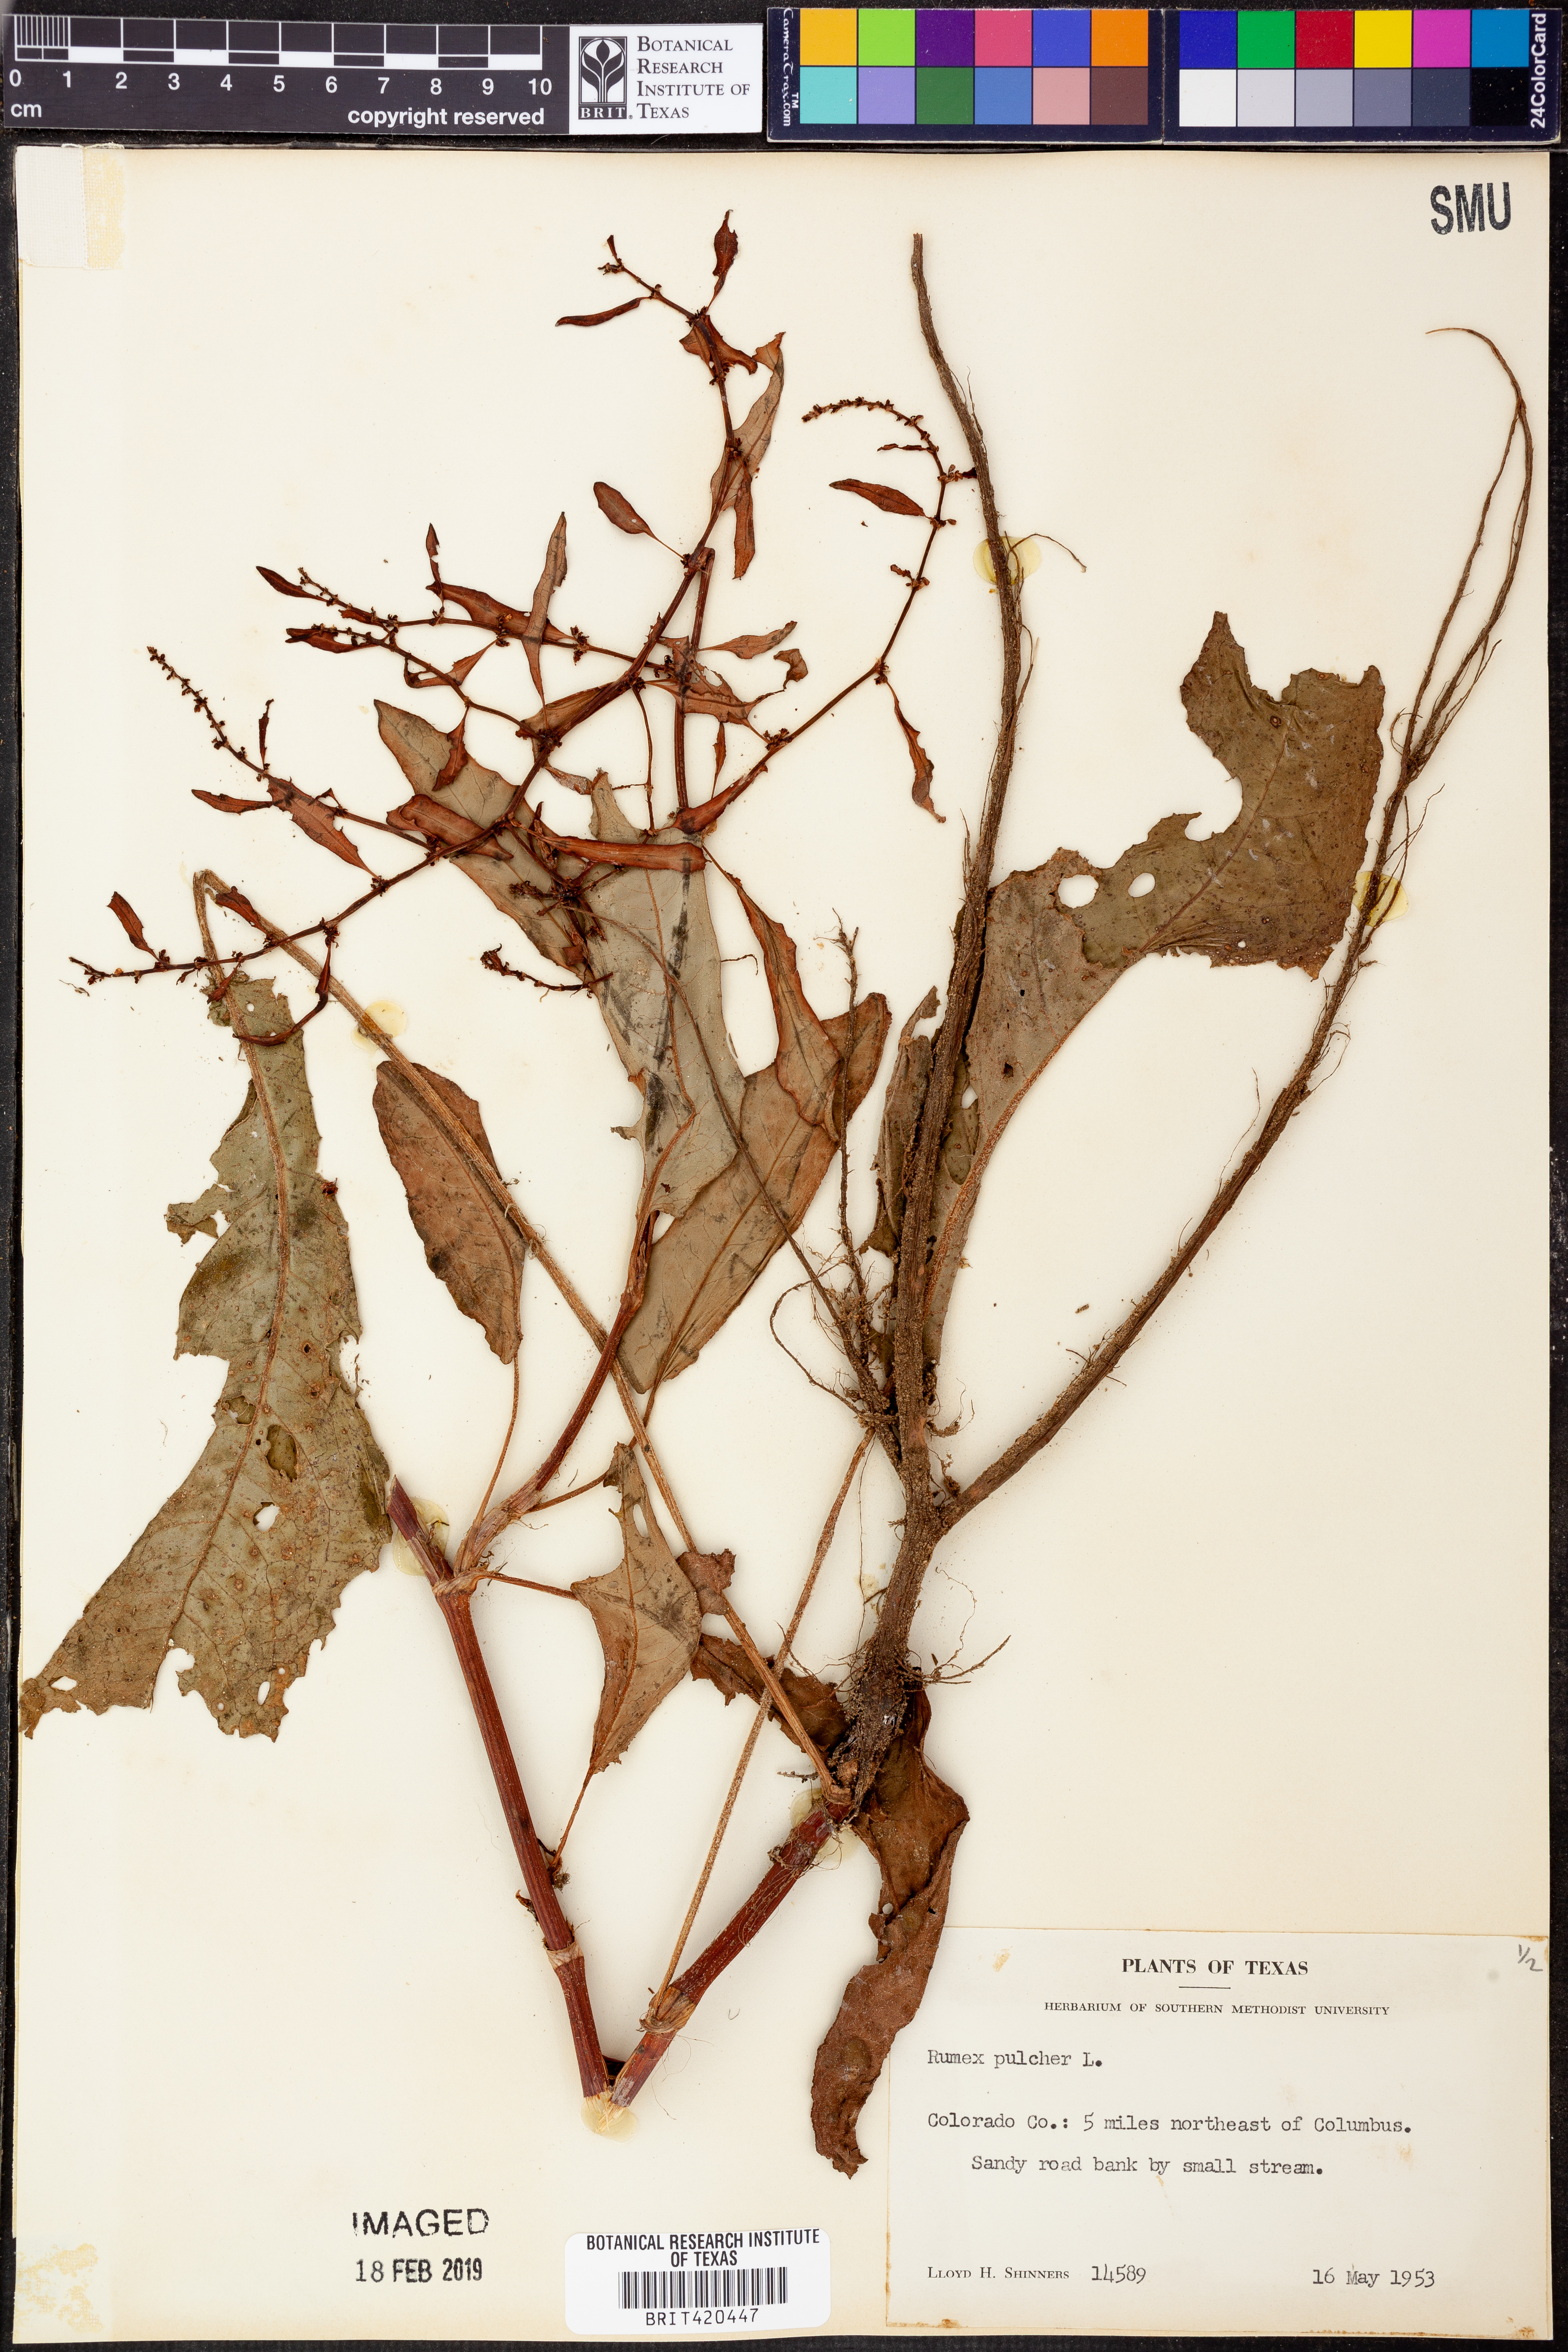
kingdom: Plantae
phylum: Tracheophyta
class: Magnoliopsida
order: Caryophyllales
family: Polygonaceae
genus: Rumex
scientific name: Rumex pulcher
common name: Fiddle dock
